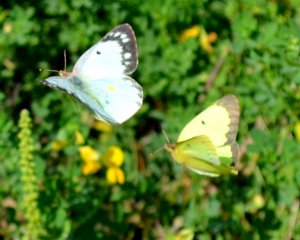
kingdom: Animalia
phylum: Arthropoda
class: Insecta
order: Lepidoptera
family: Pieridae
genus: Colias
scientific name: Colias philodice
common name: Clouded Sulphur
